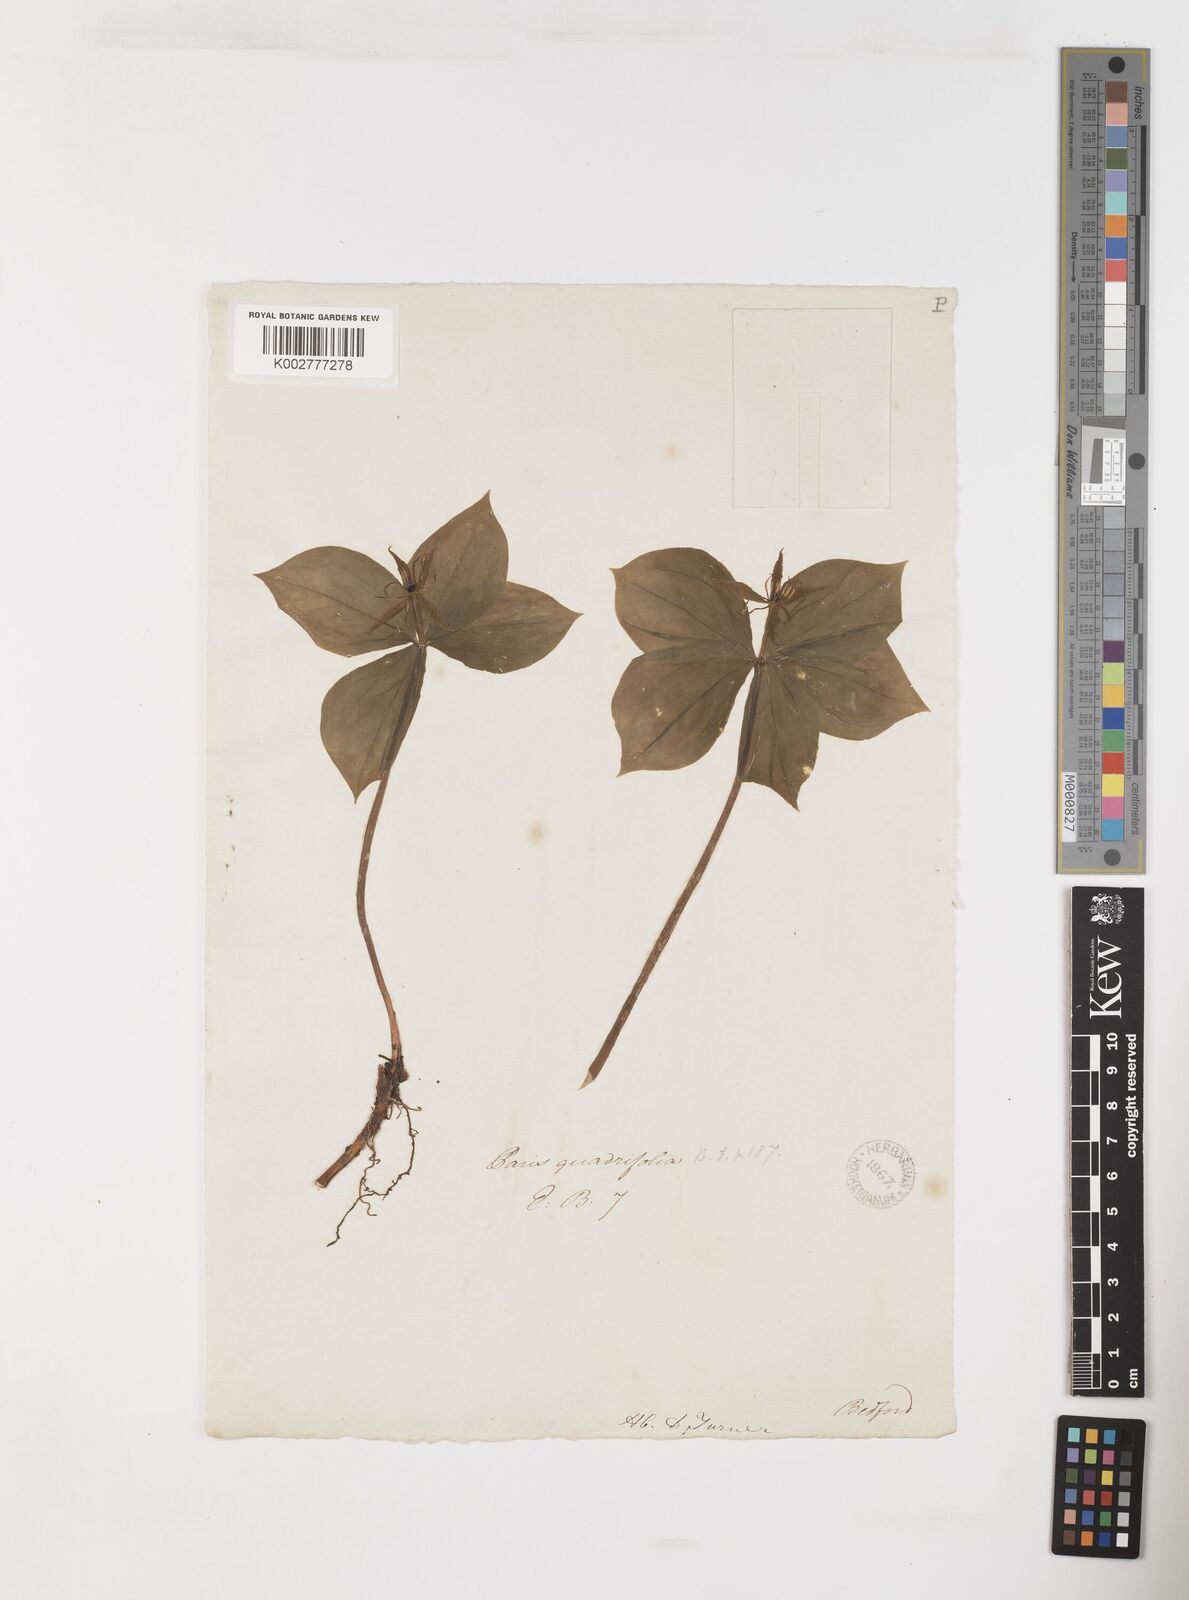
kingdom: Plantae
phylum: Tracheophyta
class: Liliopsida
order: Liliales
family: Melanthiaceae
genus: Paris
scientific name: Paris quadrifolia
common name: Herb-paris
